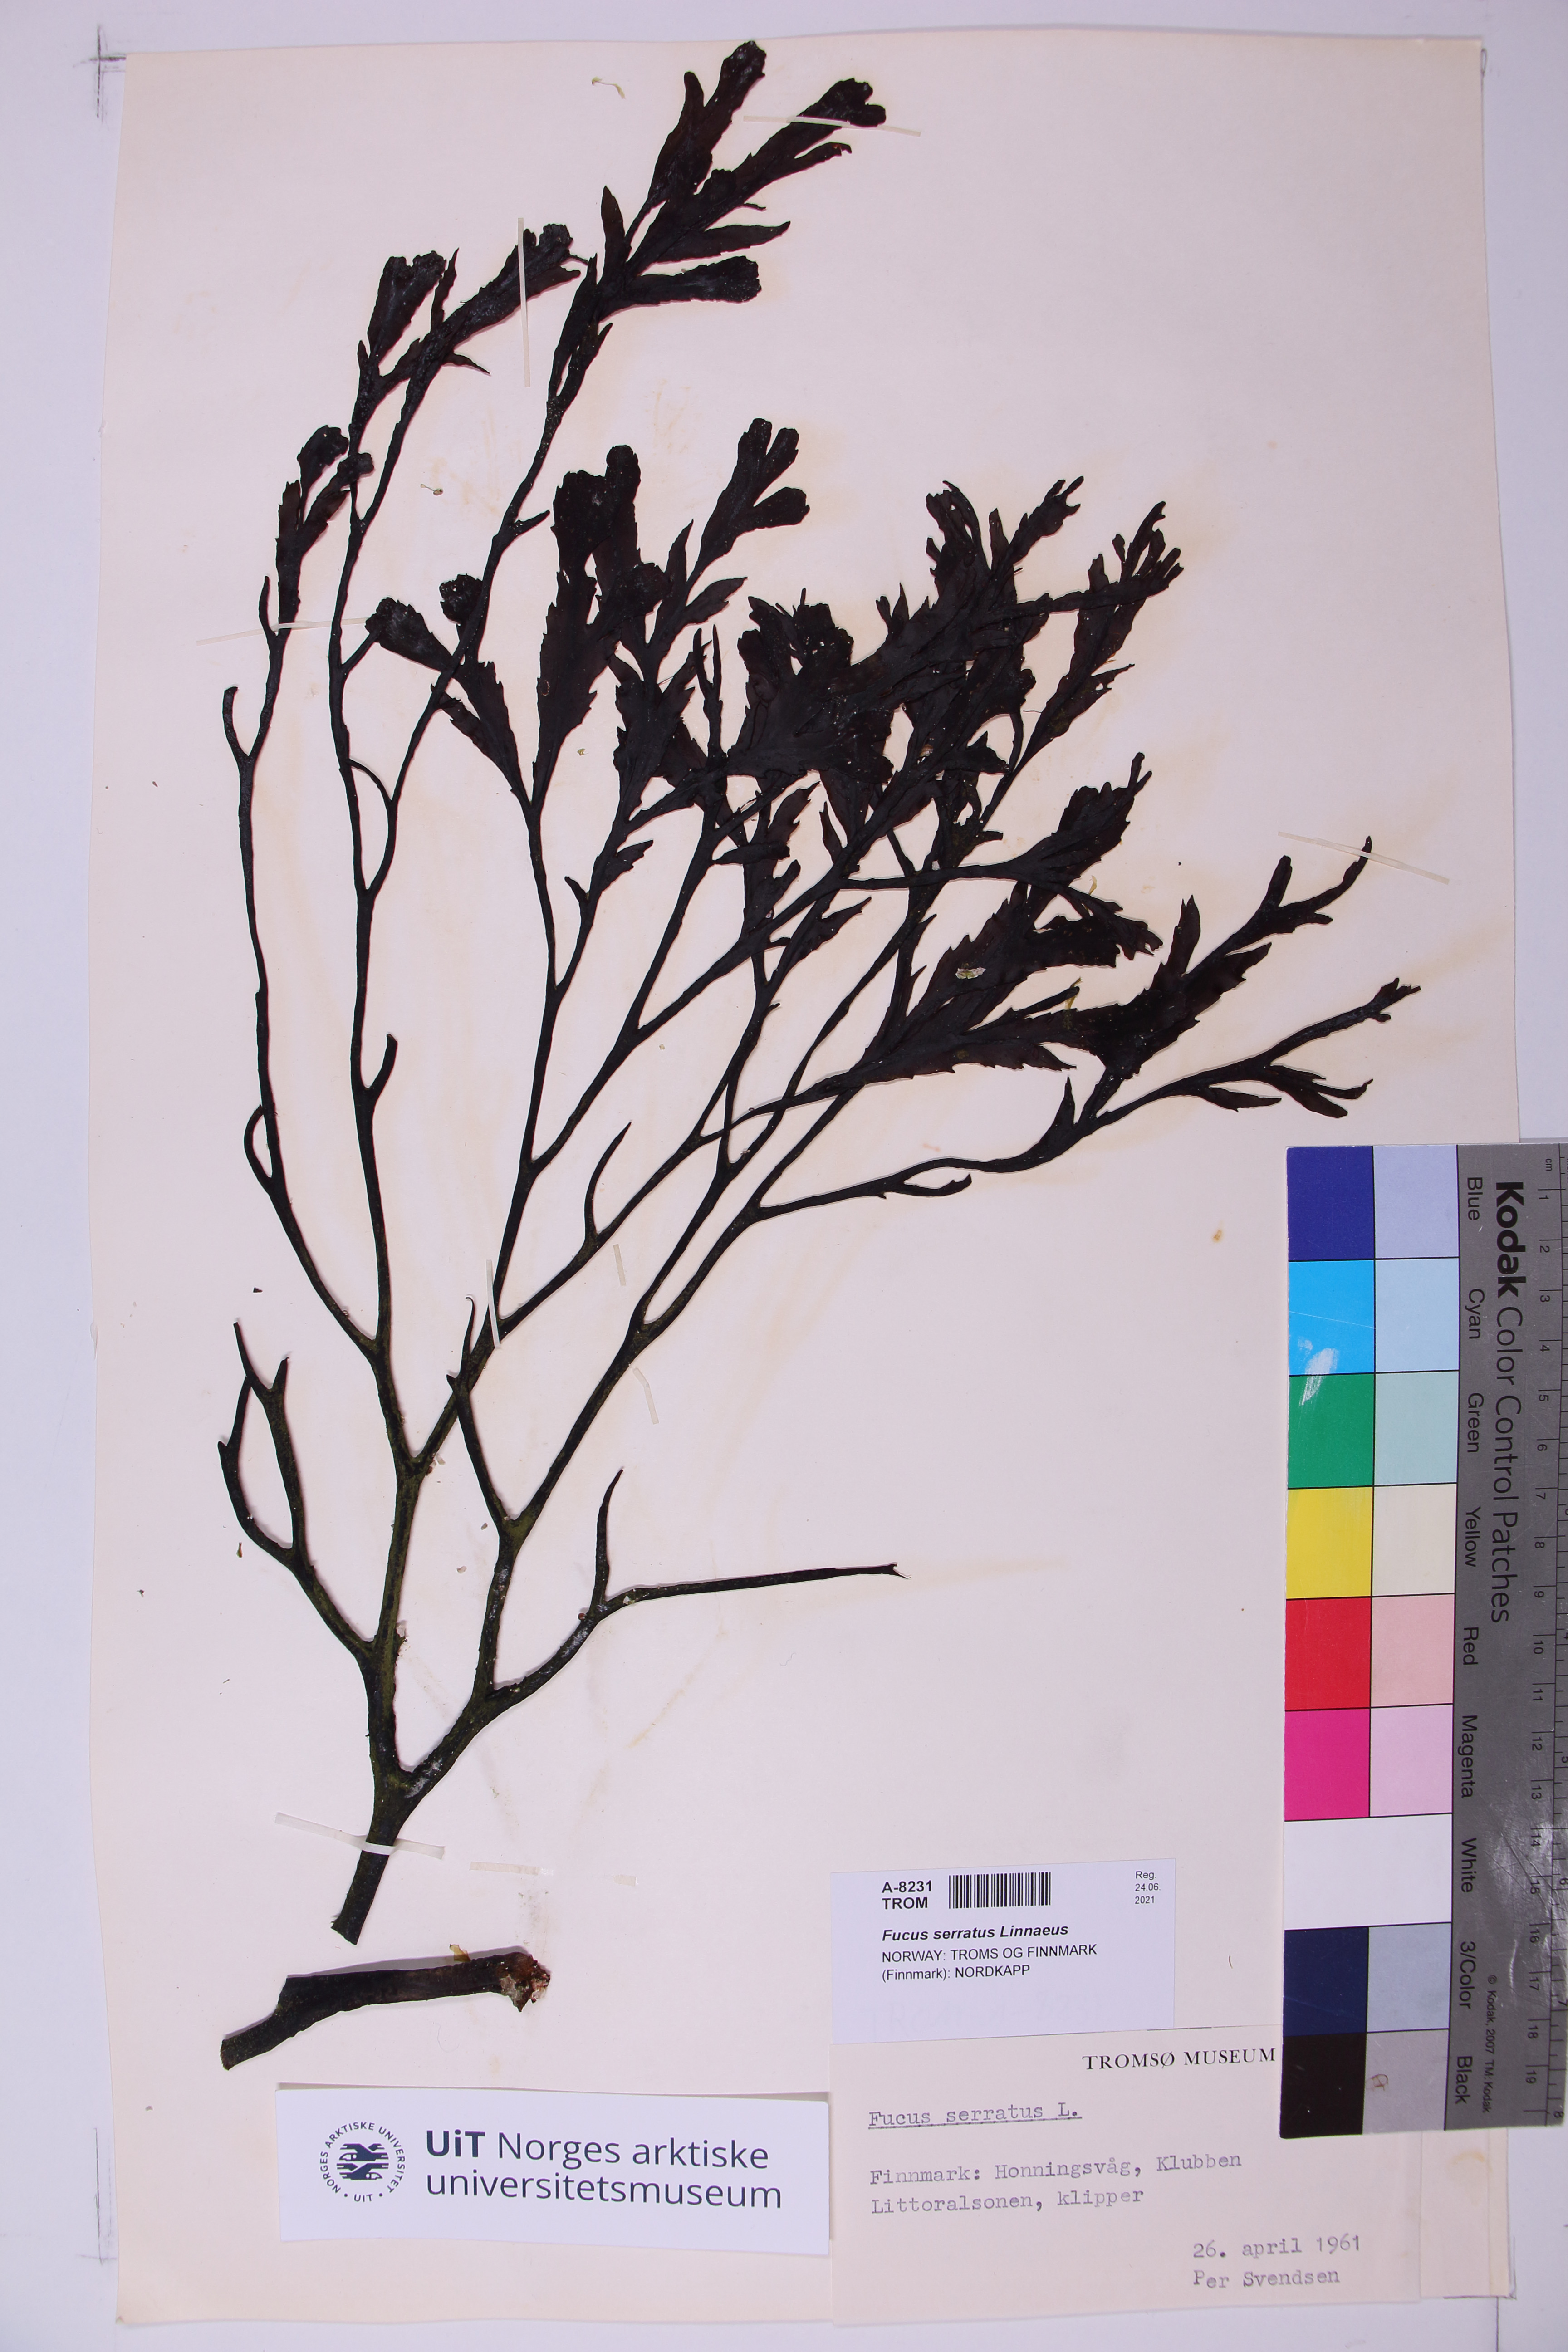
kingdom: Chromista
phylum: Ochrophyta
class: Phaeophyceae
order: Fucales
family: Fucaceae
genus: Fucus
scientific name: Fucus serratus
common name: Toothed wrack
